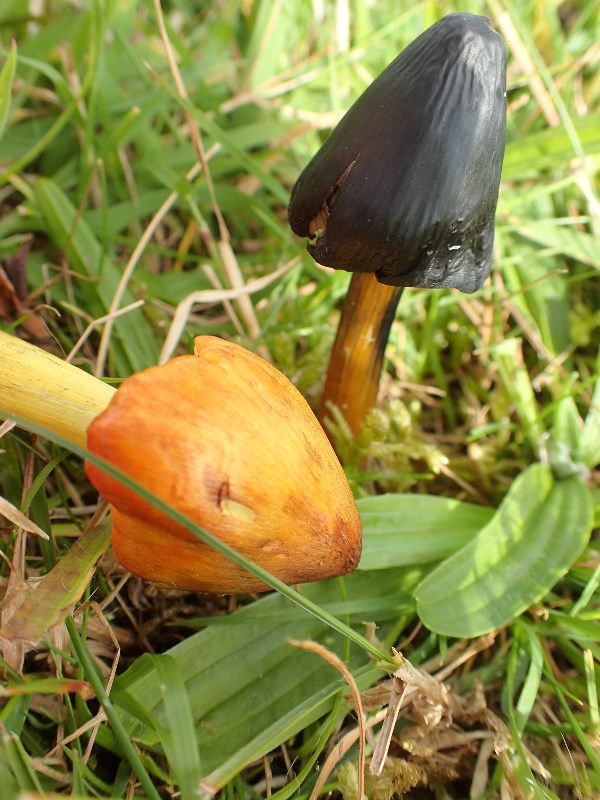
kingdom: Fungi
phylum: Basidiomycota
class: Agaricomycetes
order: Agaricales
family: Hygrophoraceae
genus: Hygrocybe
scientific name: Hygrocybe conica
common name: kegle-vokshat
